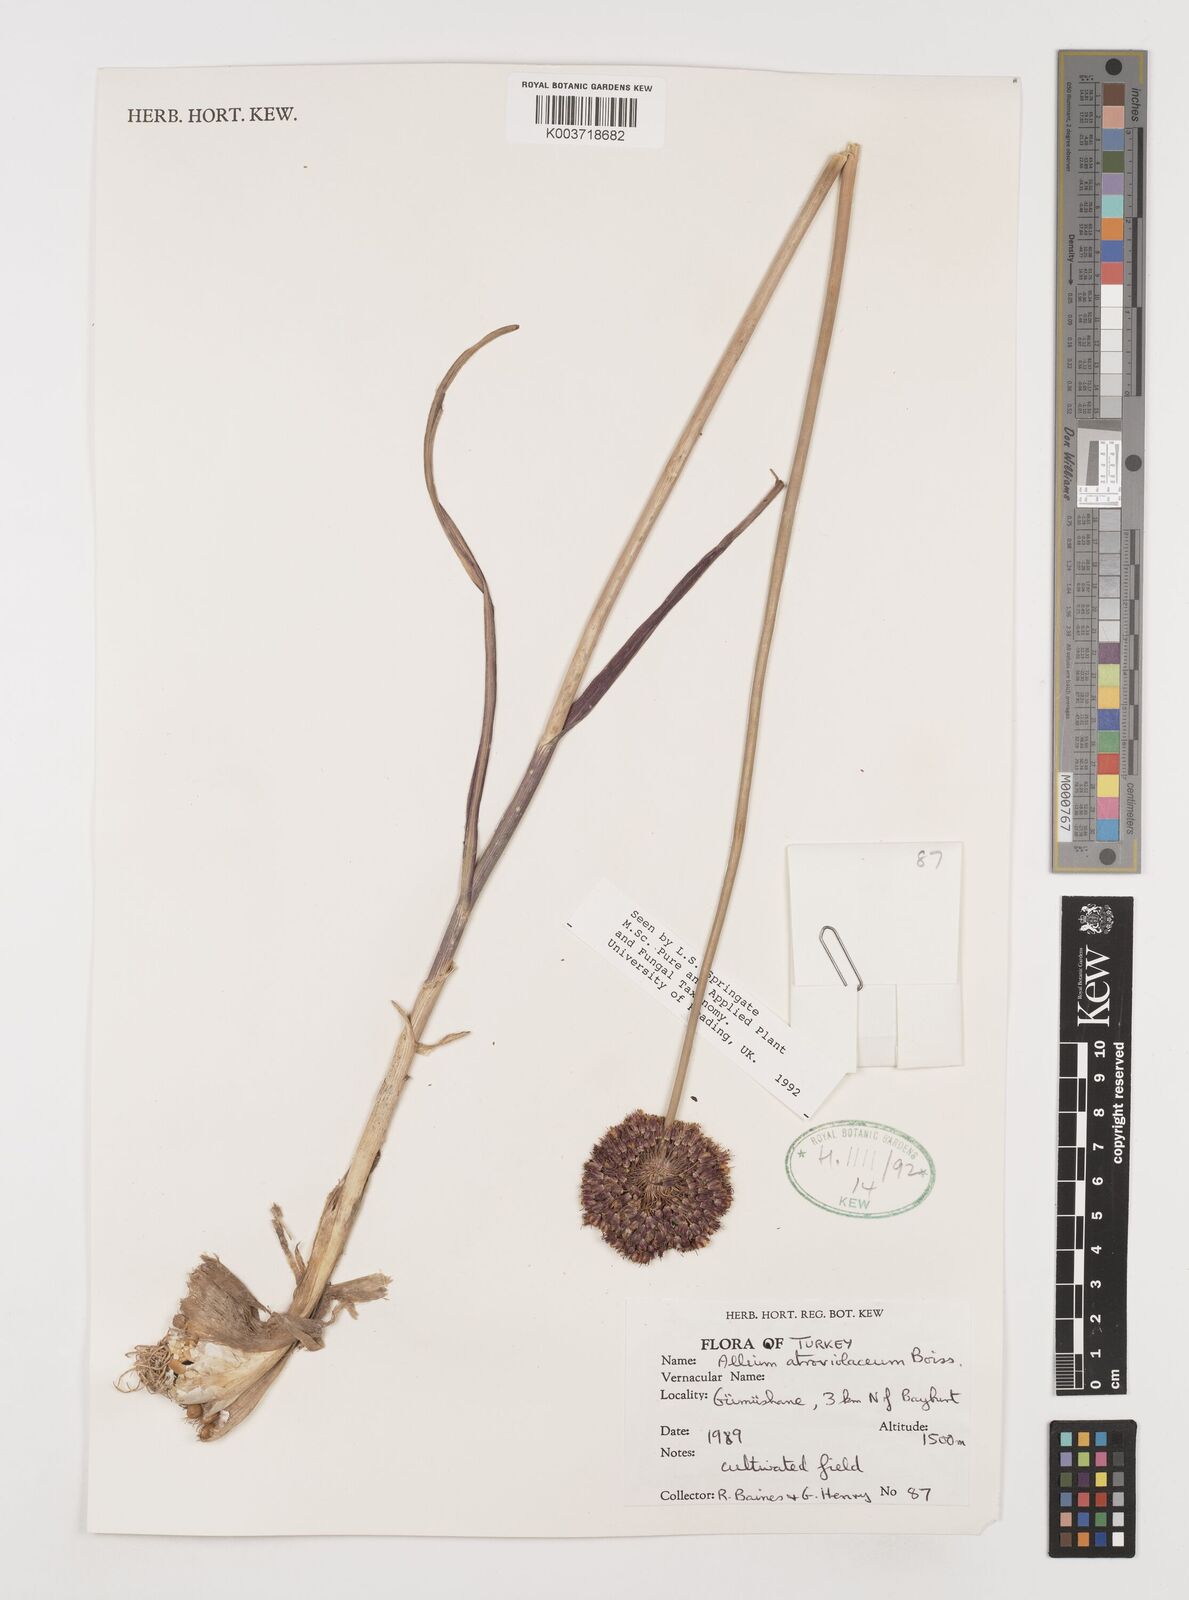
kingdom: Plantae
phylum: Tracheophyta
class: Liliopsida
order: Asparagales
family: Amaryllidaceae
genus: Allium
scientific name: Allium atroviolaceum
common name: Broadleaf wild leek
